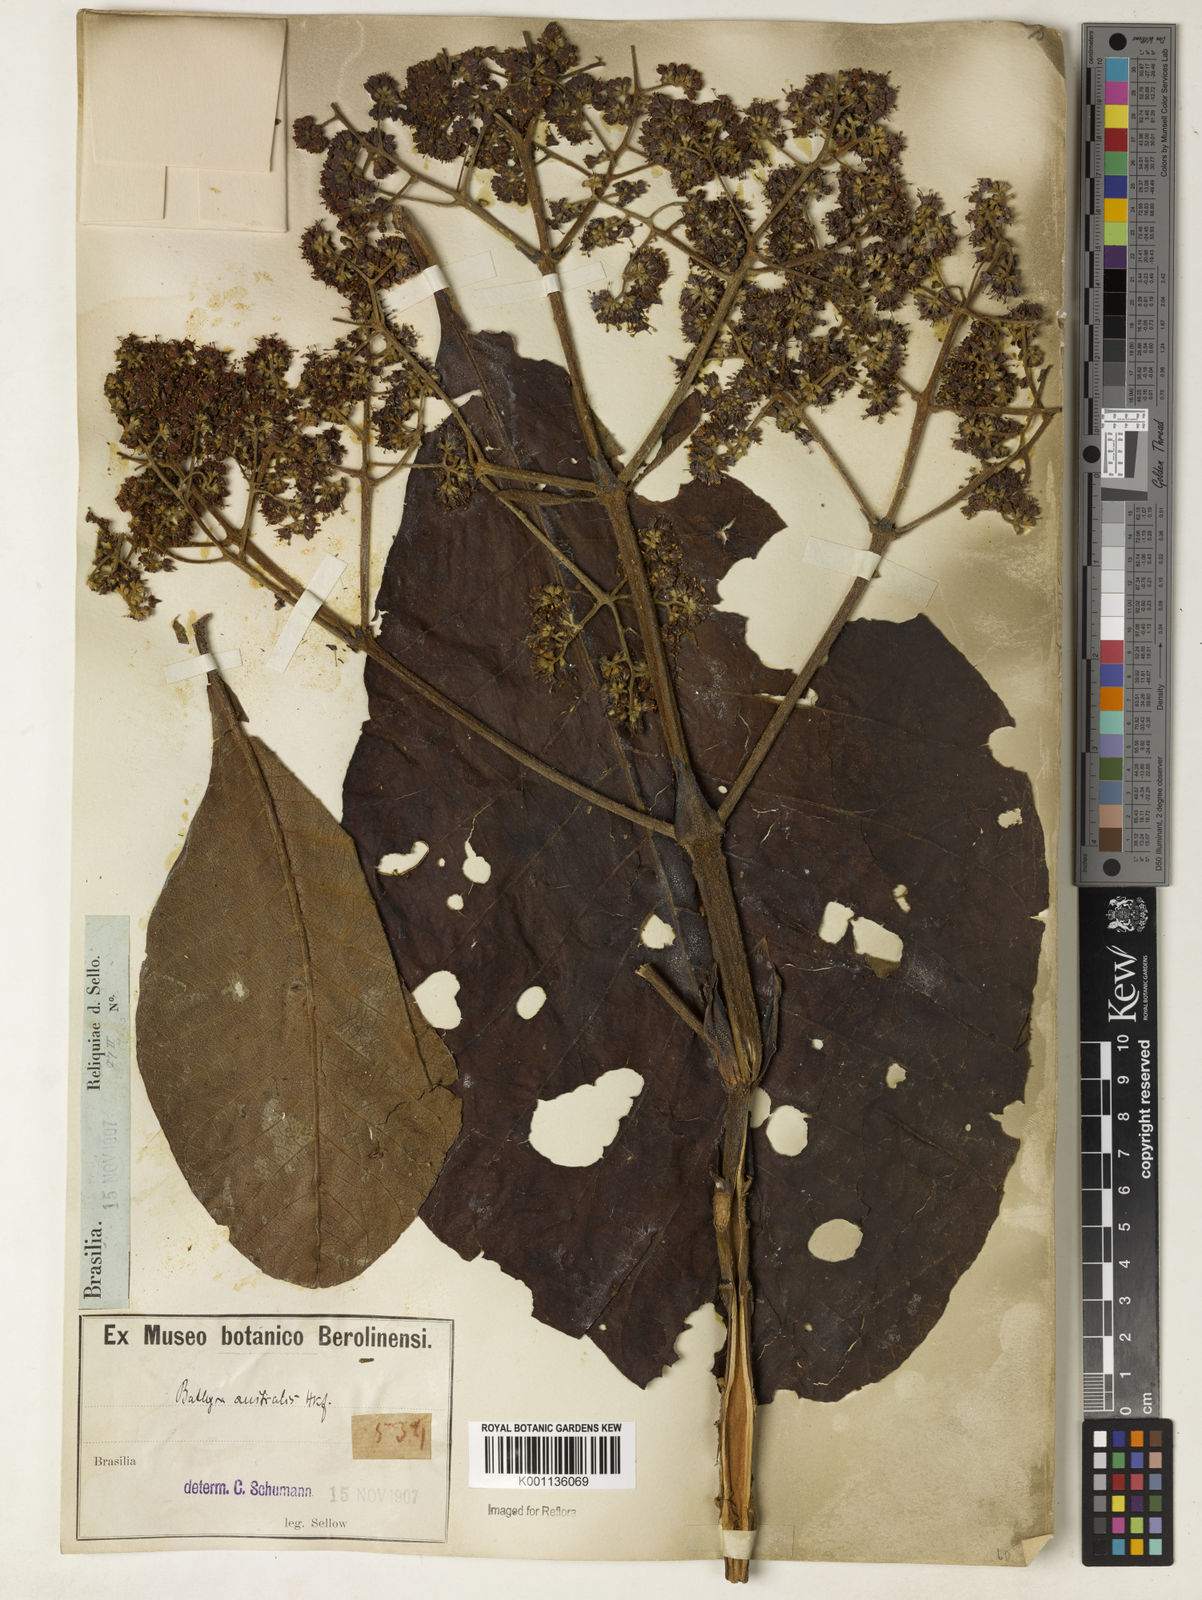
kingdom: Plantae
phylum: Tracheophyta
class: Magnoliopsida
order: Gentianales
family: Rubiaceae
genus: Bathysa
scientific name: Bathysa australis
